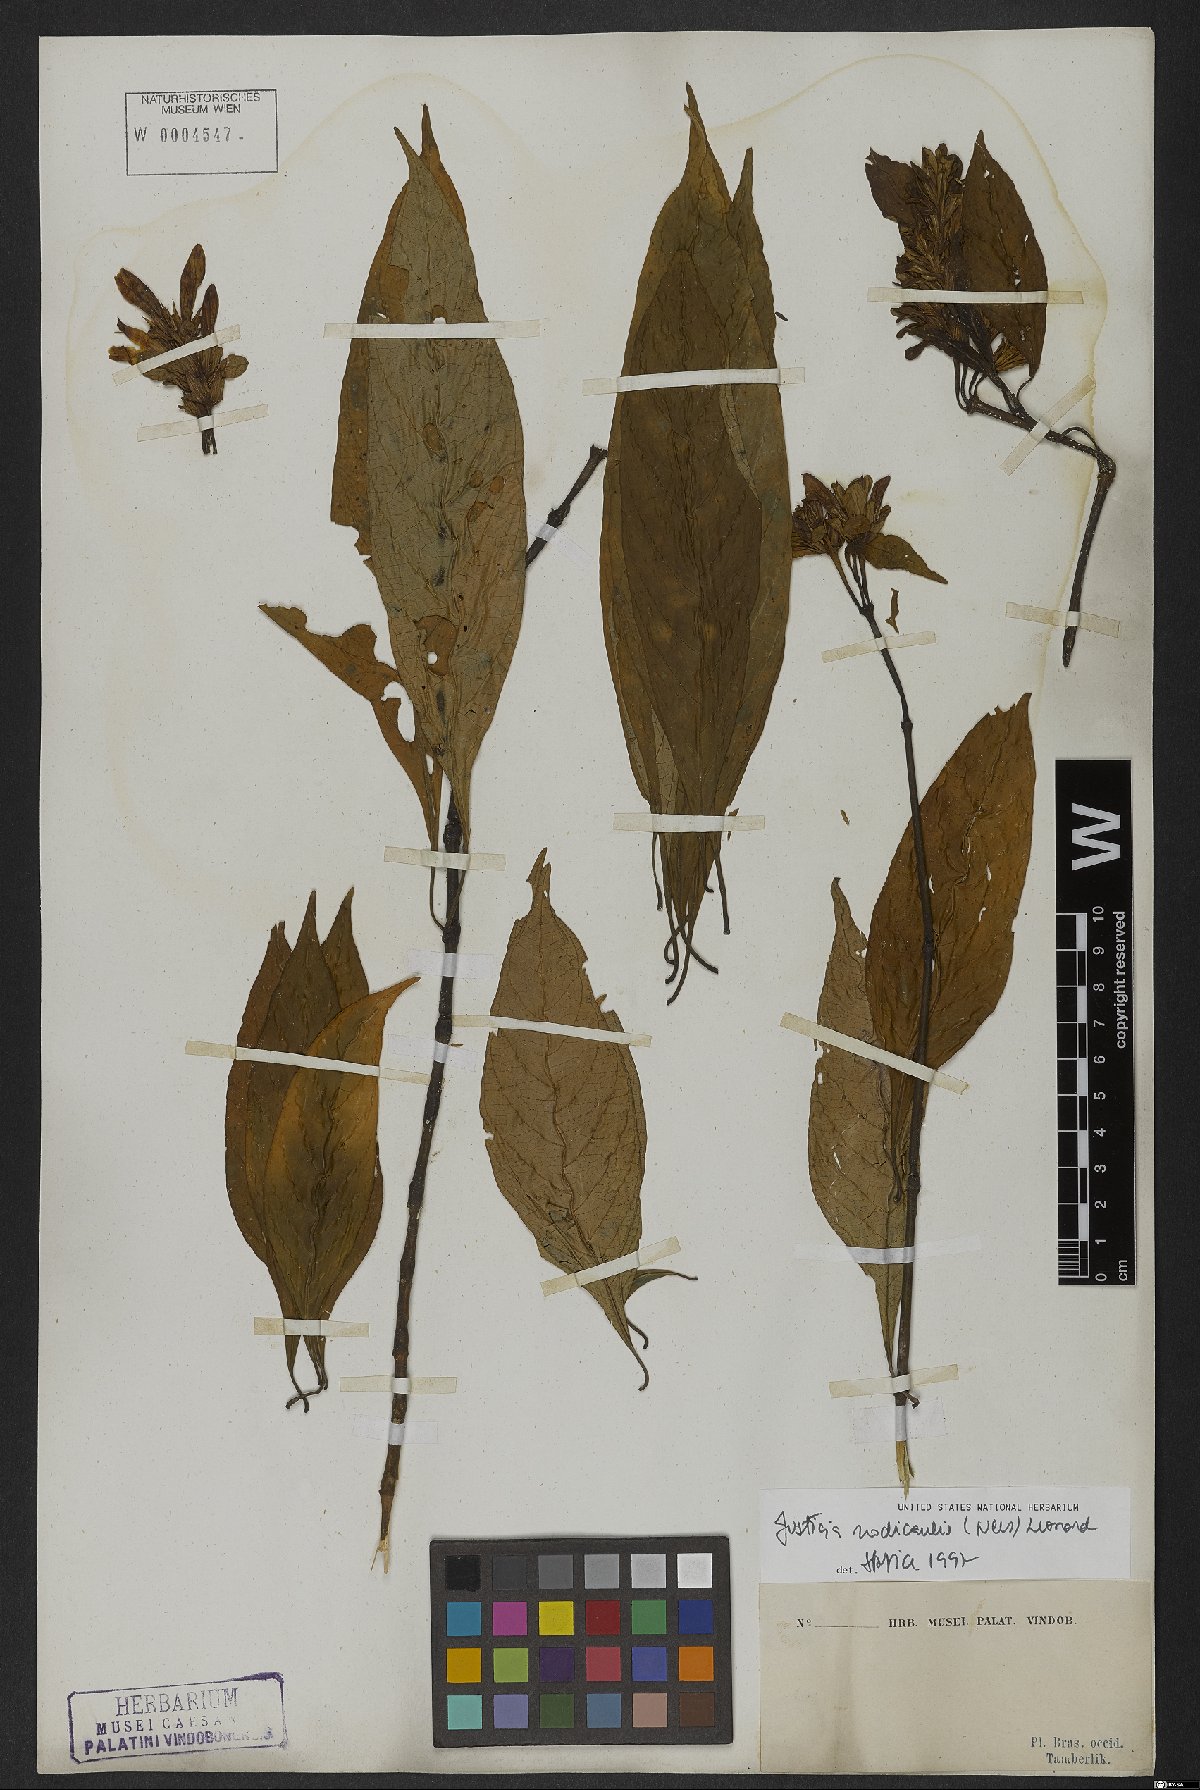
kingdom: Plantae
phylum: Tracheophyta
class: Magnoliopsida
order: Lamiales
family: Acanthaceae
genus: Justicia
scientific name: Justicia nodicaulis
